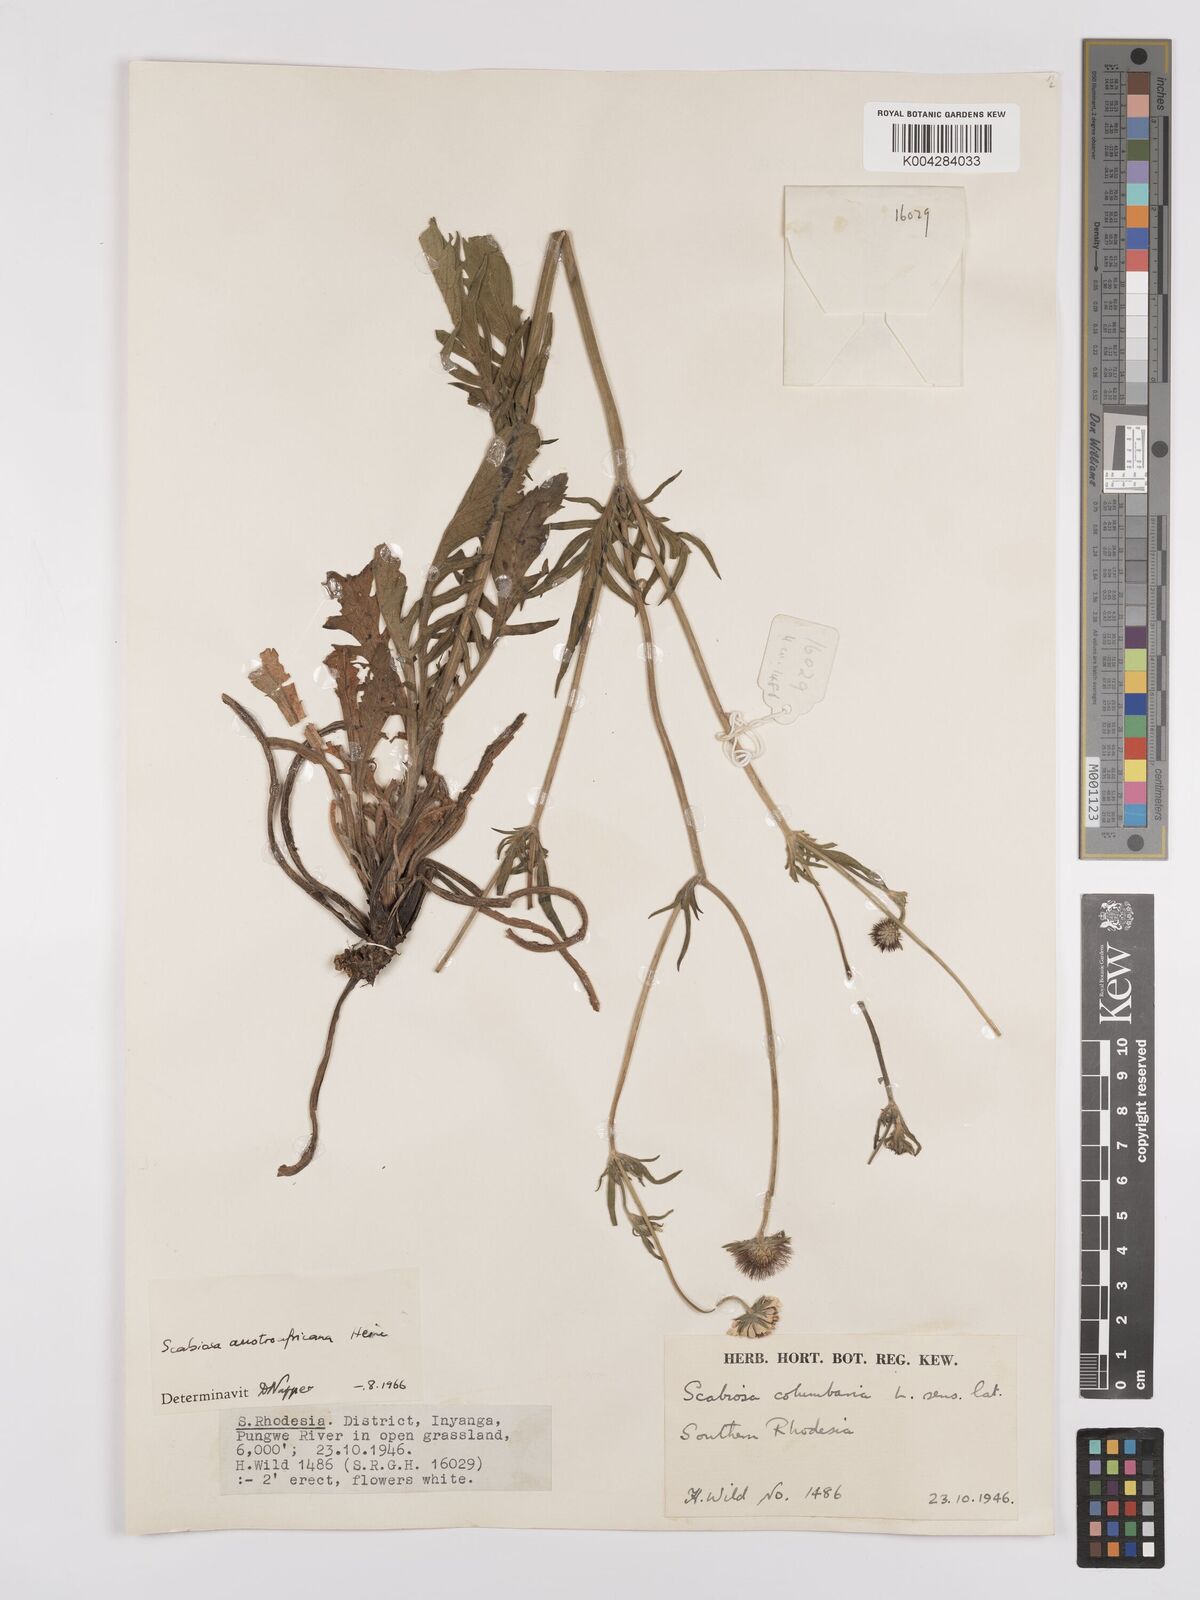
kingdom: Plantae
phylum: Tracheophyta
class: Magnoliopsida
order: Dipsacales
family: Caprifoliaceae
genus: Scabiosa
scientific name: Scabiosa austroafricana
